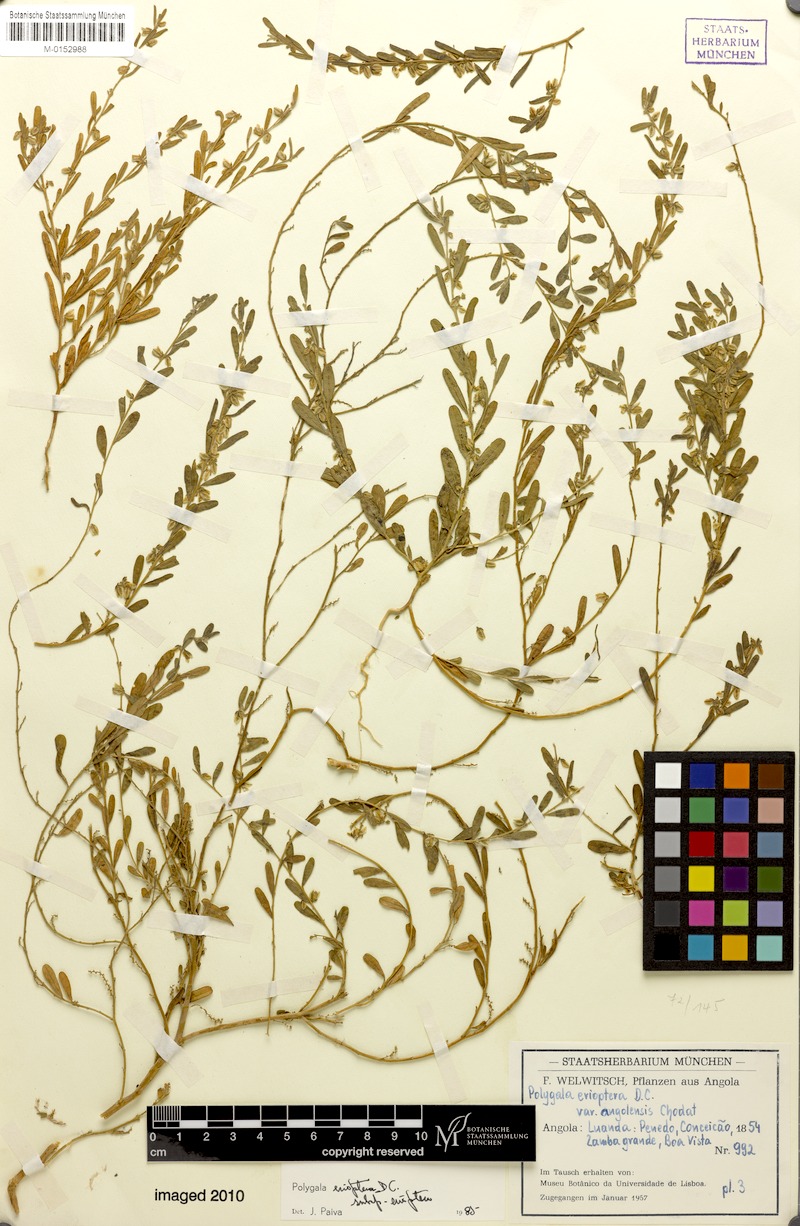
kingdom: Plantae
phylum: Tracheophyta
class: Magnoliopsida
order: Fabales
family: Polygalaceae
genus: Polygala
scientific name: Polygala erioptera
